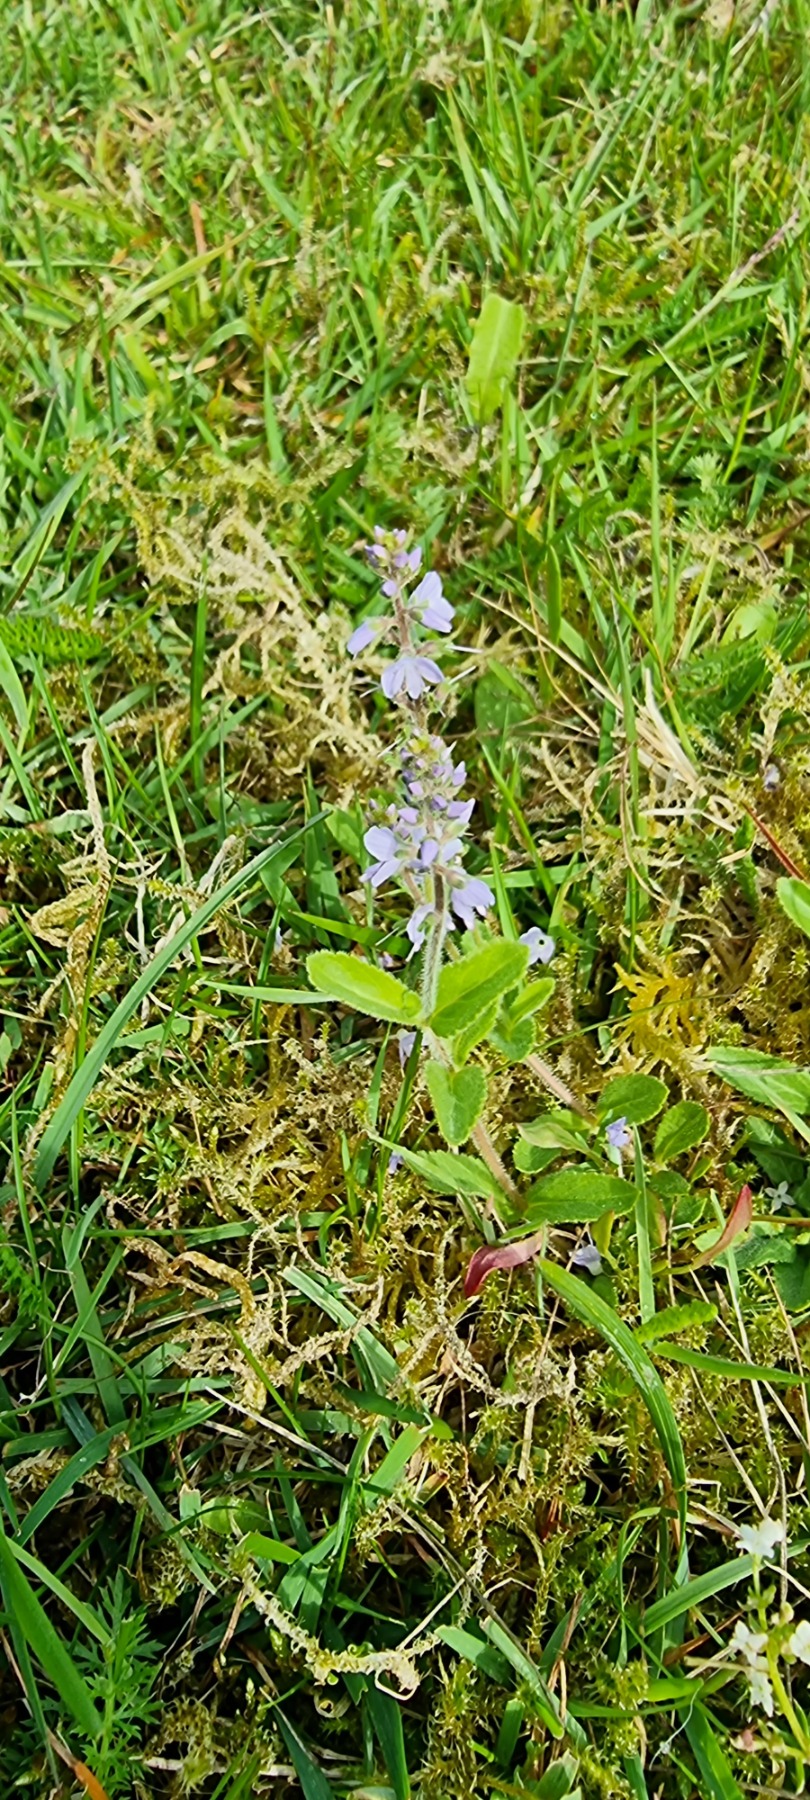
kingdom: Plantae
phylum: Tracheophyta
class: Magnoliopsida
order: Lamiales
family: Plantaginaceae
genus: Veronica
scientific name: Veronica officinalis
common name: Læge-ærenpris
